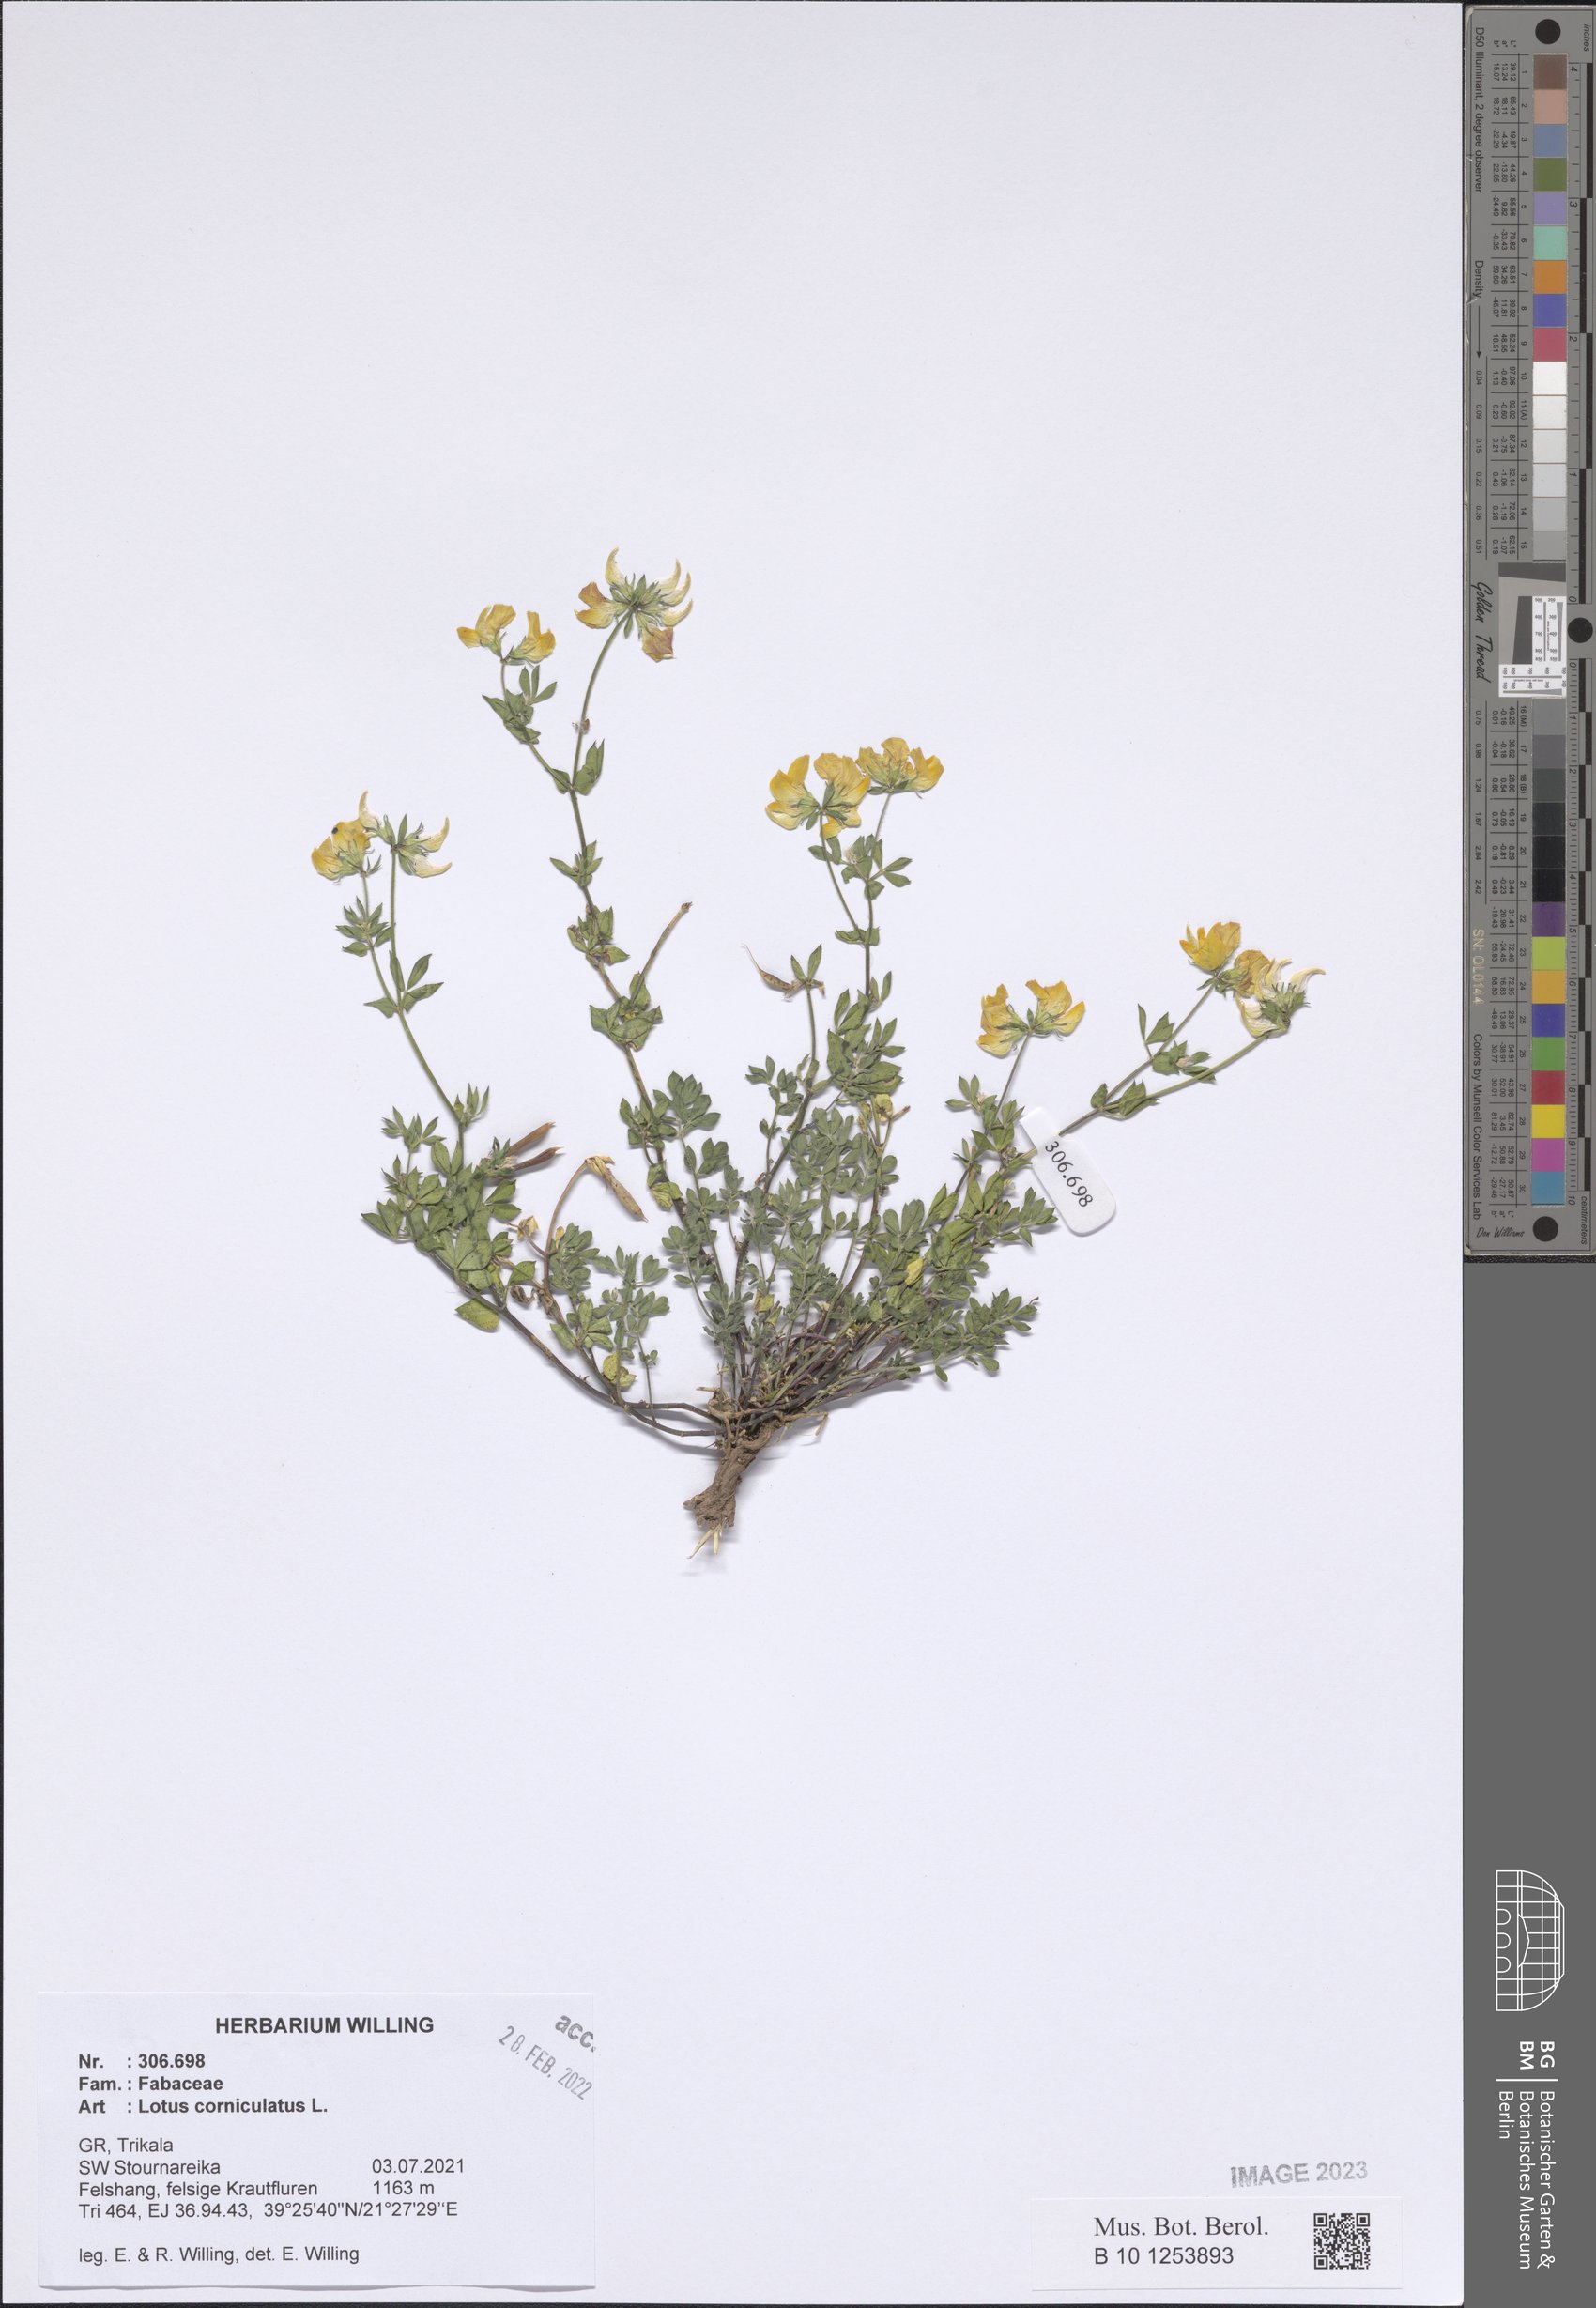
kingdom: Plantae
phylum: Tracheophyta
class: Magnoliopsida
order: Fabales
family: Fabaceae
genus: Lotus
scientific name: Lotus corniculatus
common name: Common bird's-foot-trefoil
